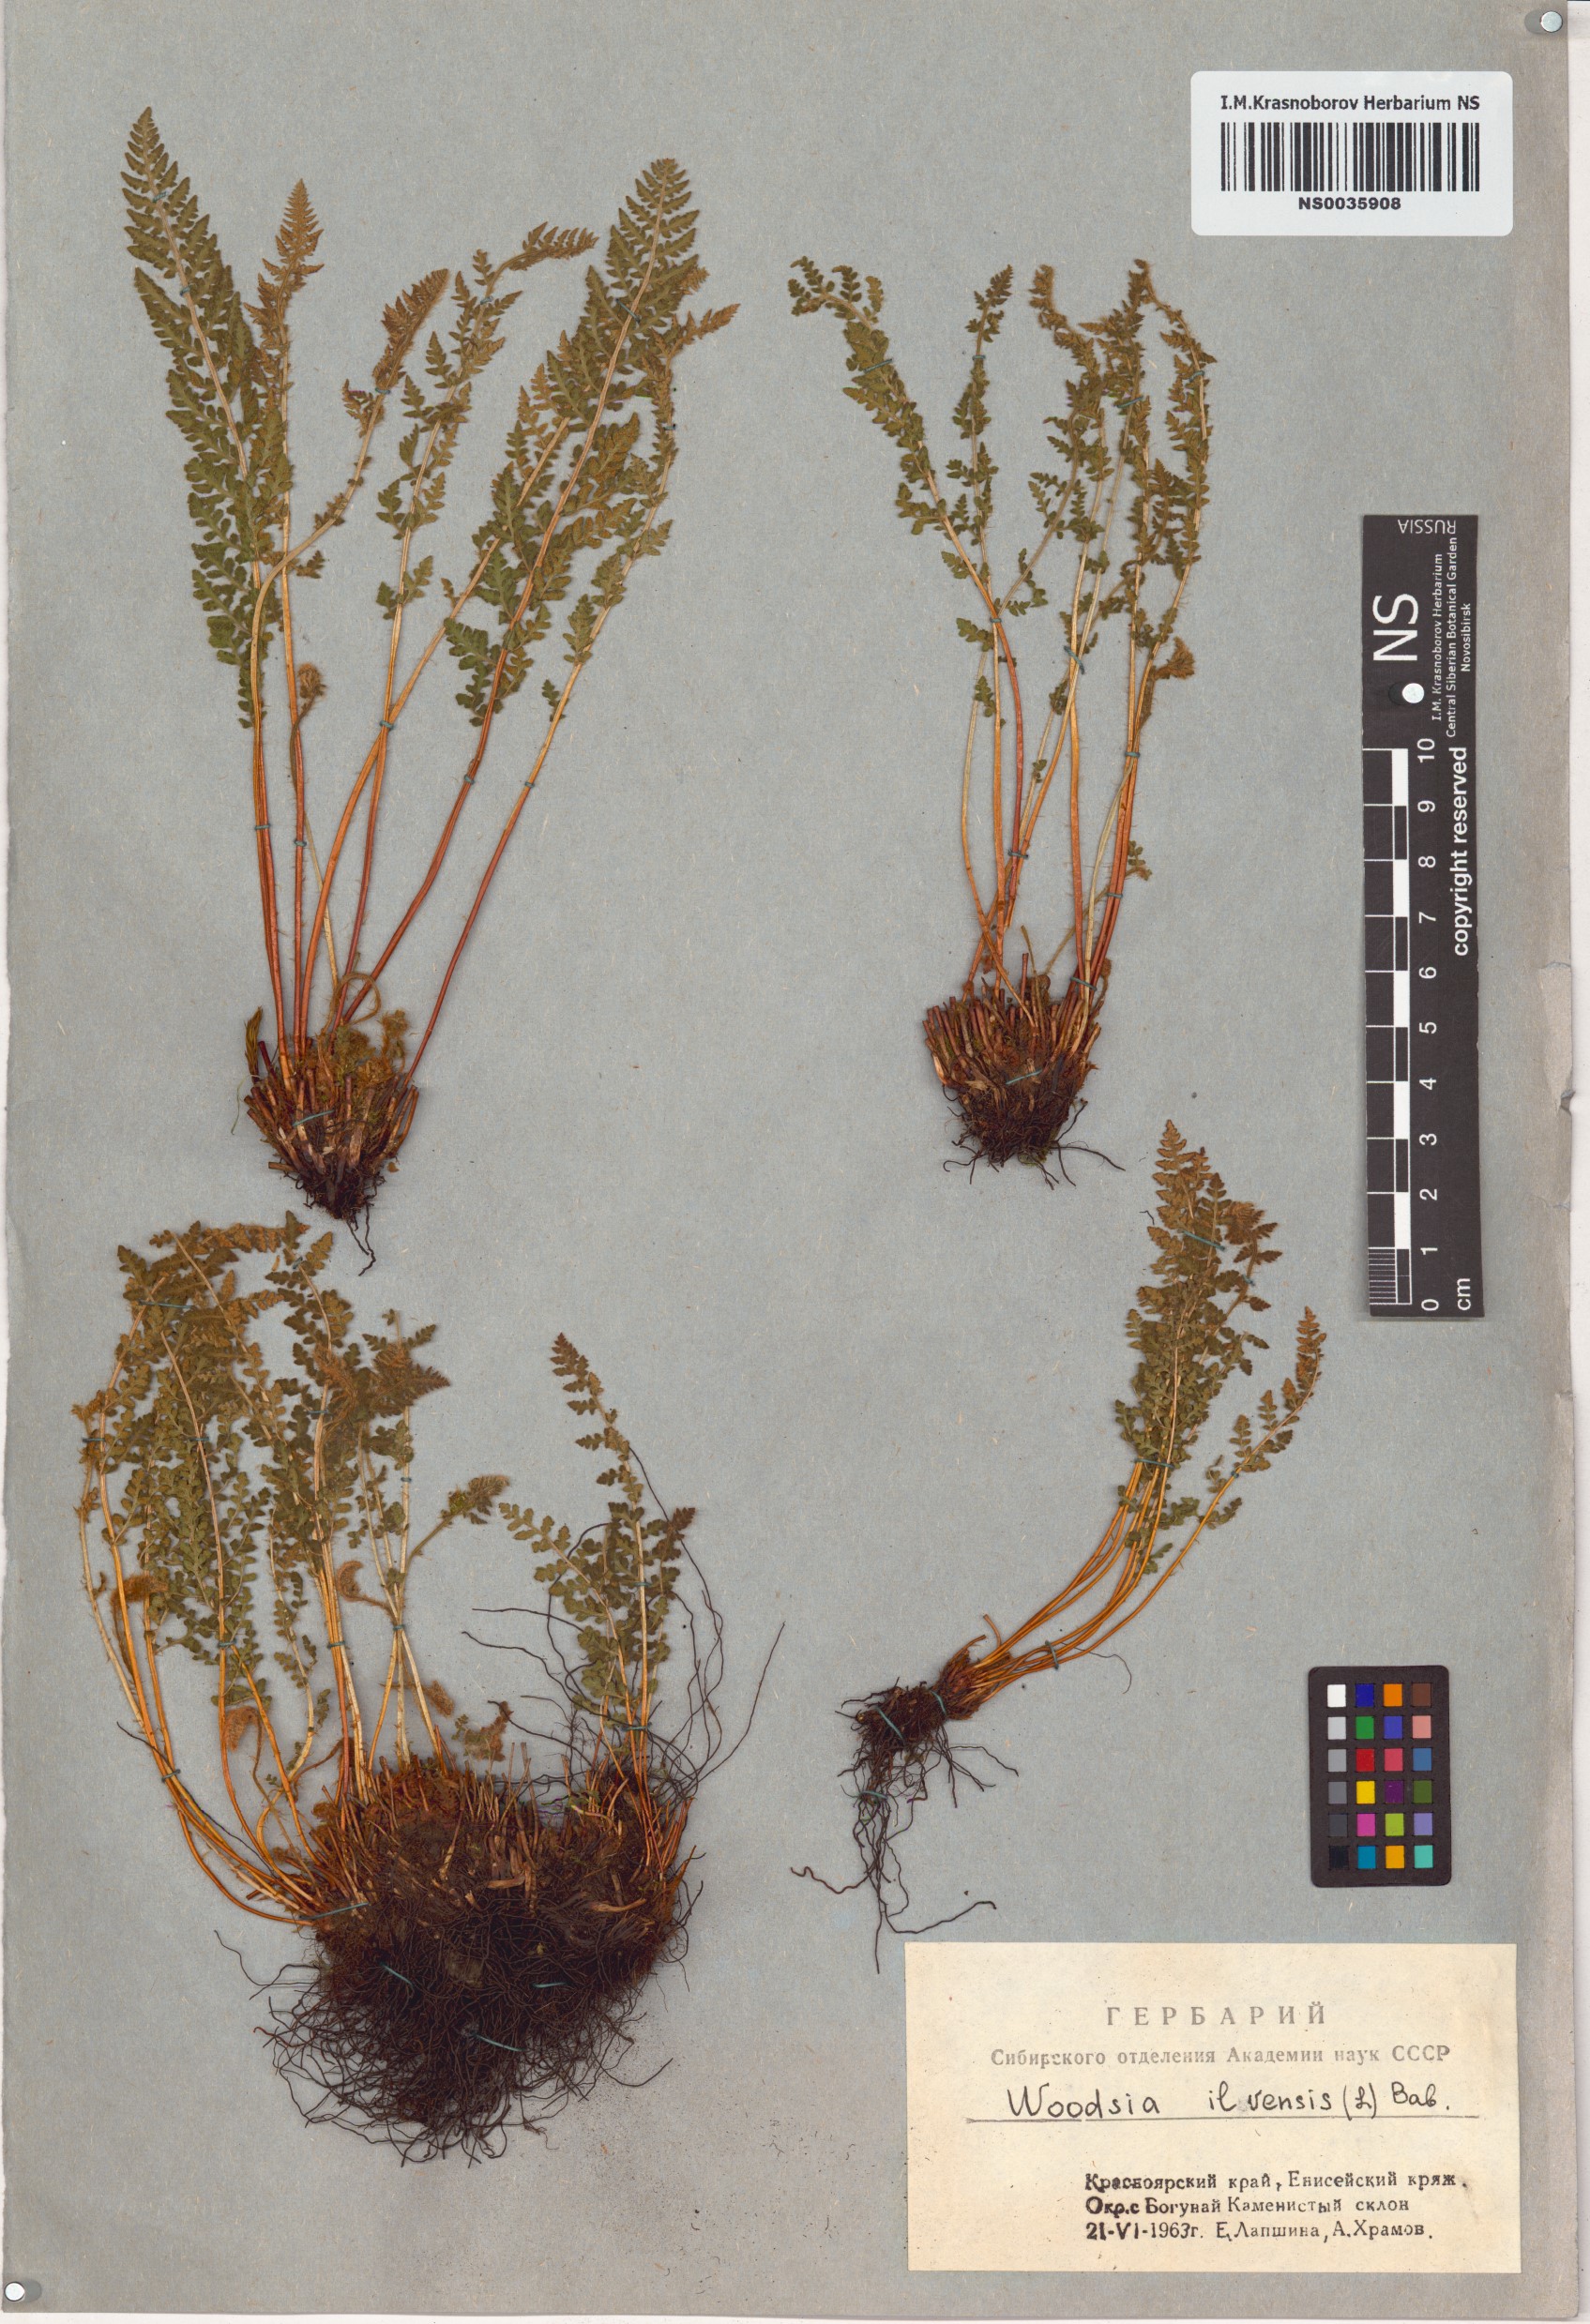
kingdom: Plantae
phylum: Tracheophyta
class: Polypodiopsida
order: Polypodiales
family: Woodsiaceae
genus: Woodsia
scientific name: Woodsia ilvensis
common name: Fragrant woodsia
